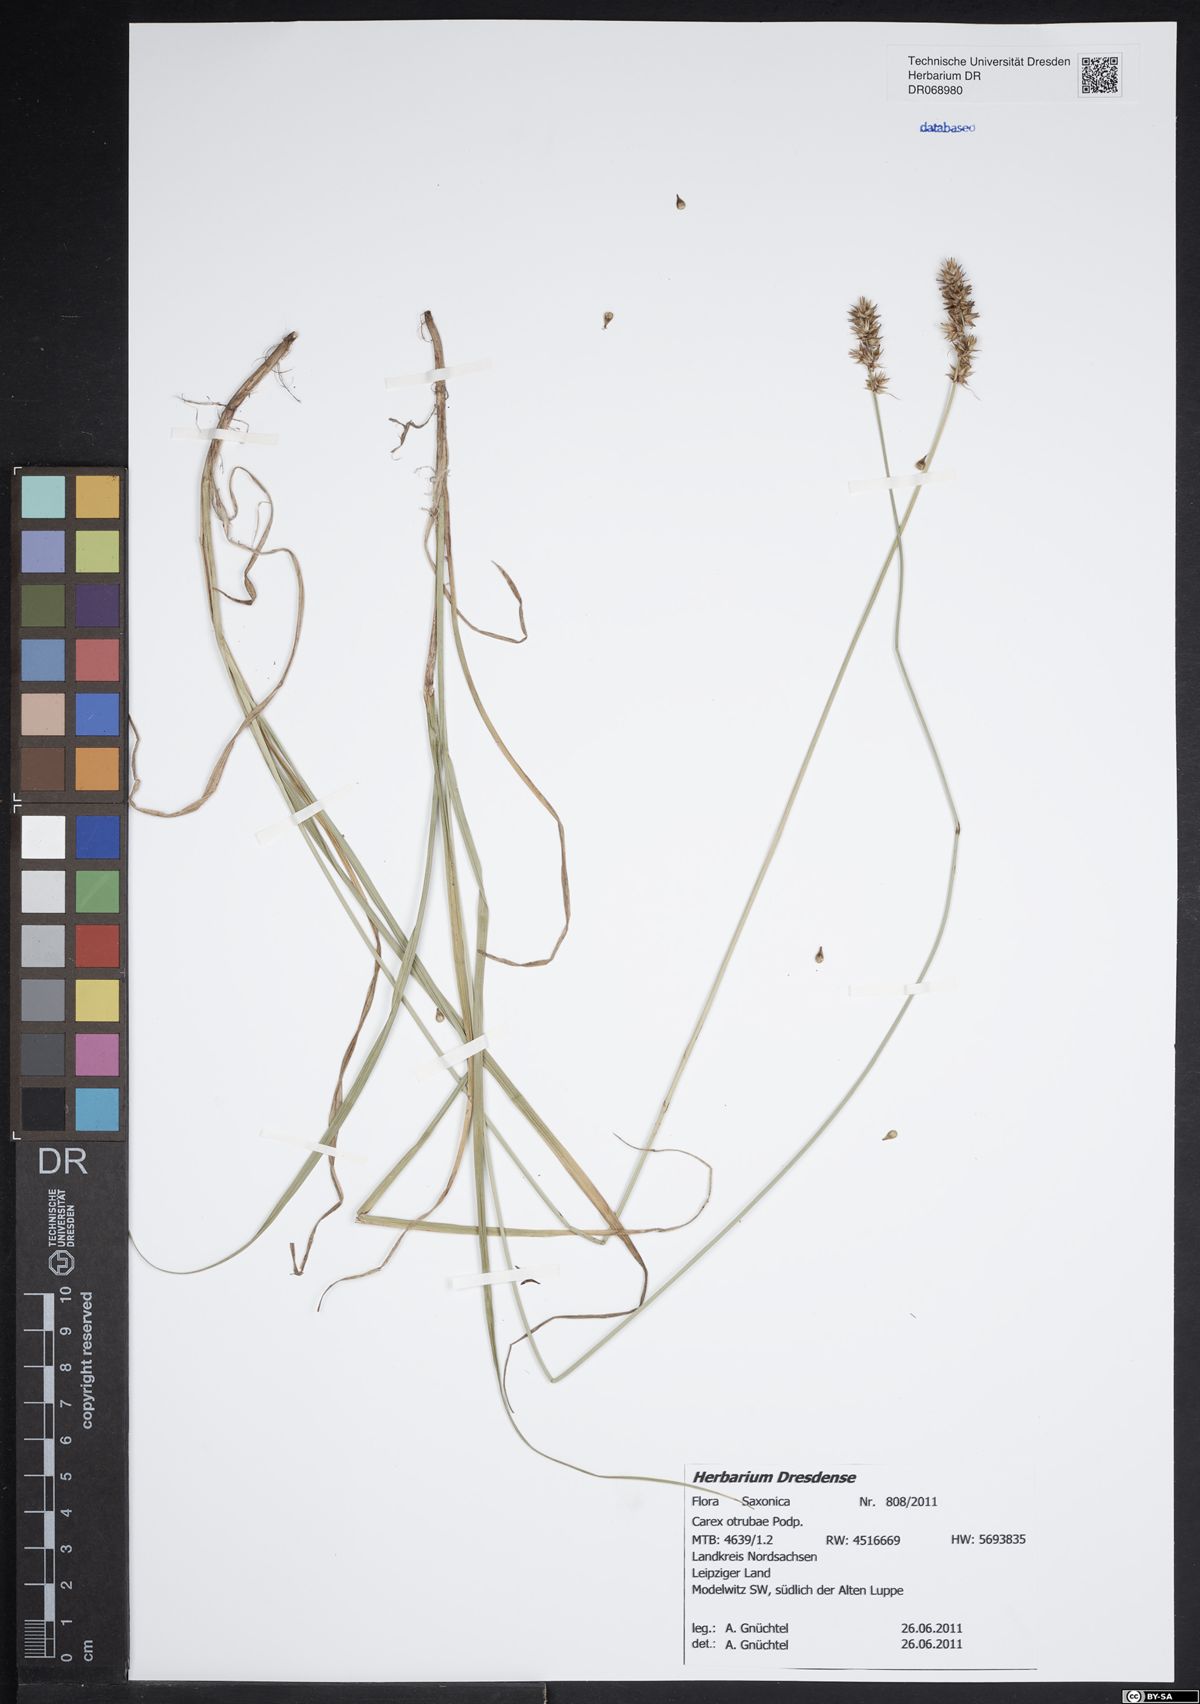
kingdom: Plantae
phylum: Tracheophyta
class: Liliopsida
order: Poales
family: Cyperaceae
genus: Carex
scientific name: Carex otrubae
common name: False fox-sedge
